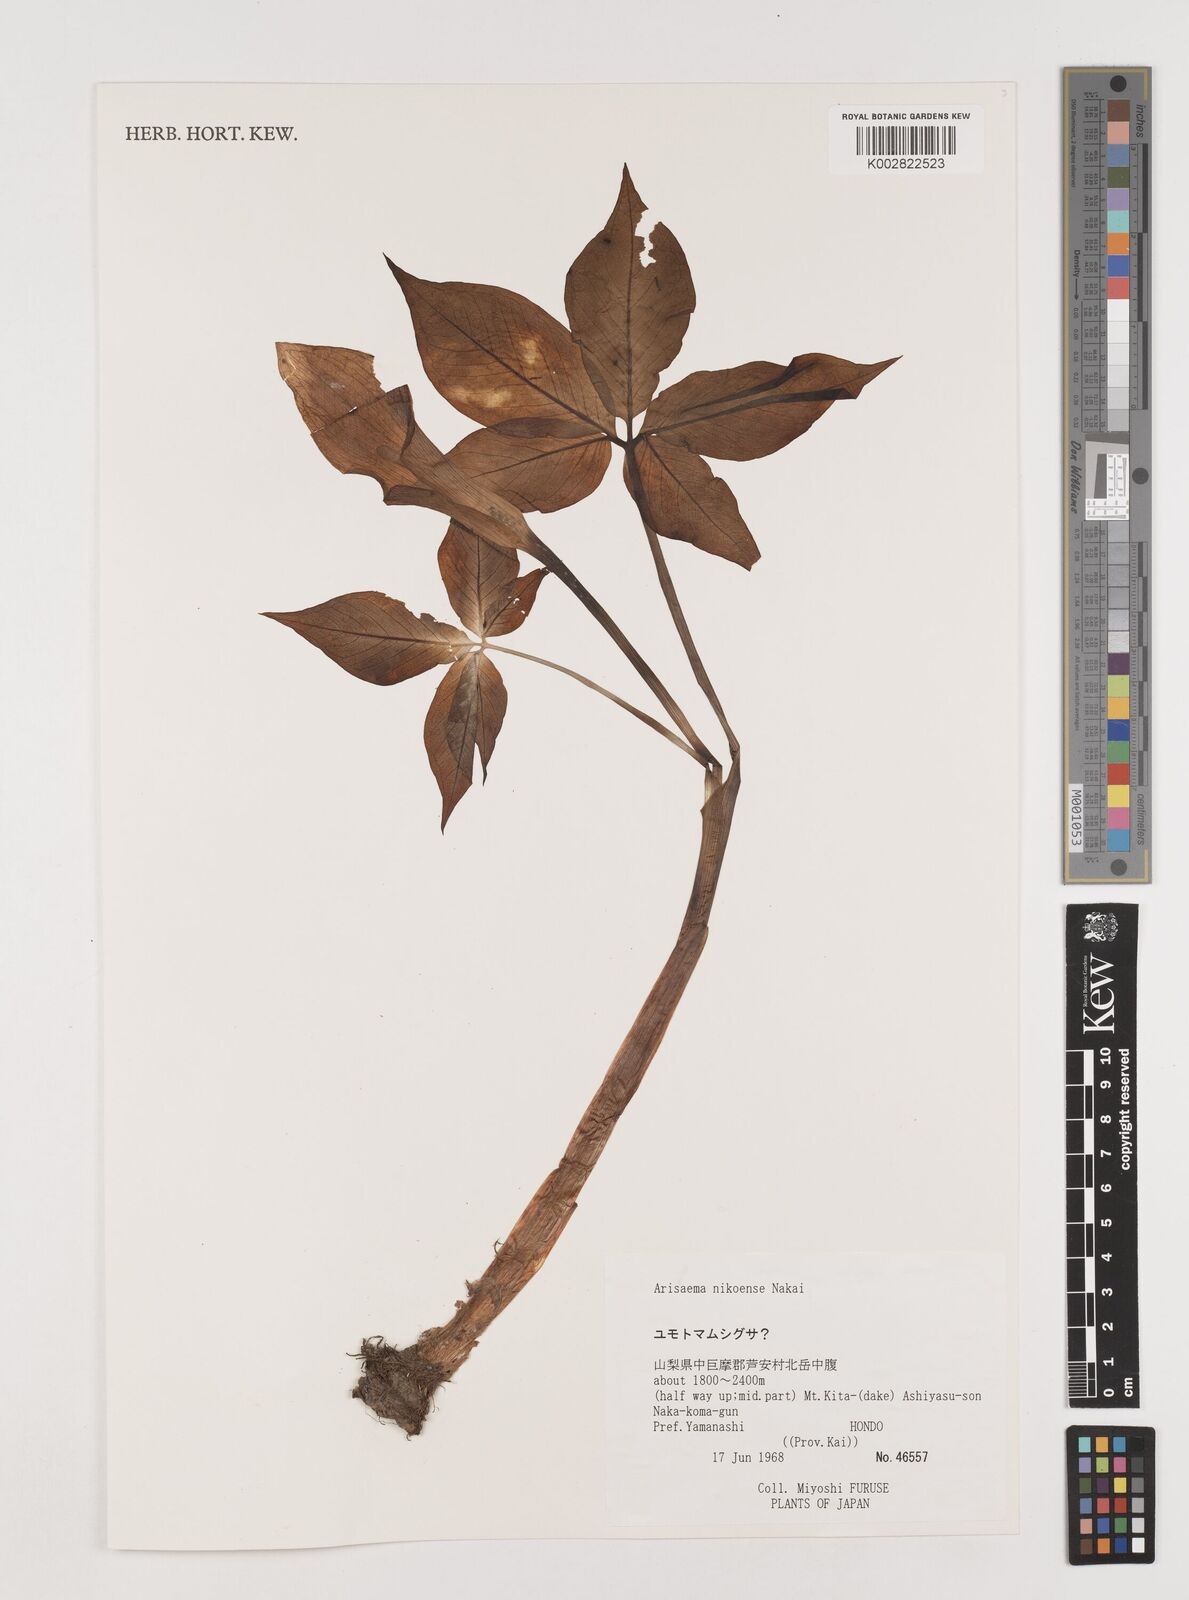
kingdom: Plantae
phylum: Tracheophyta
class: Liliopsida
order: Alismatales
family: Araceae
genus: Arisaema
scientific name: Arisaema nikoense
